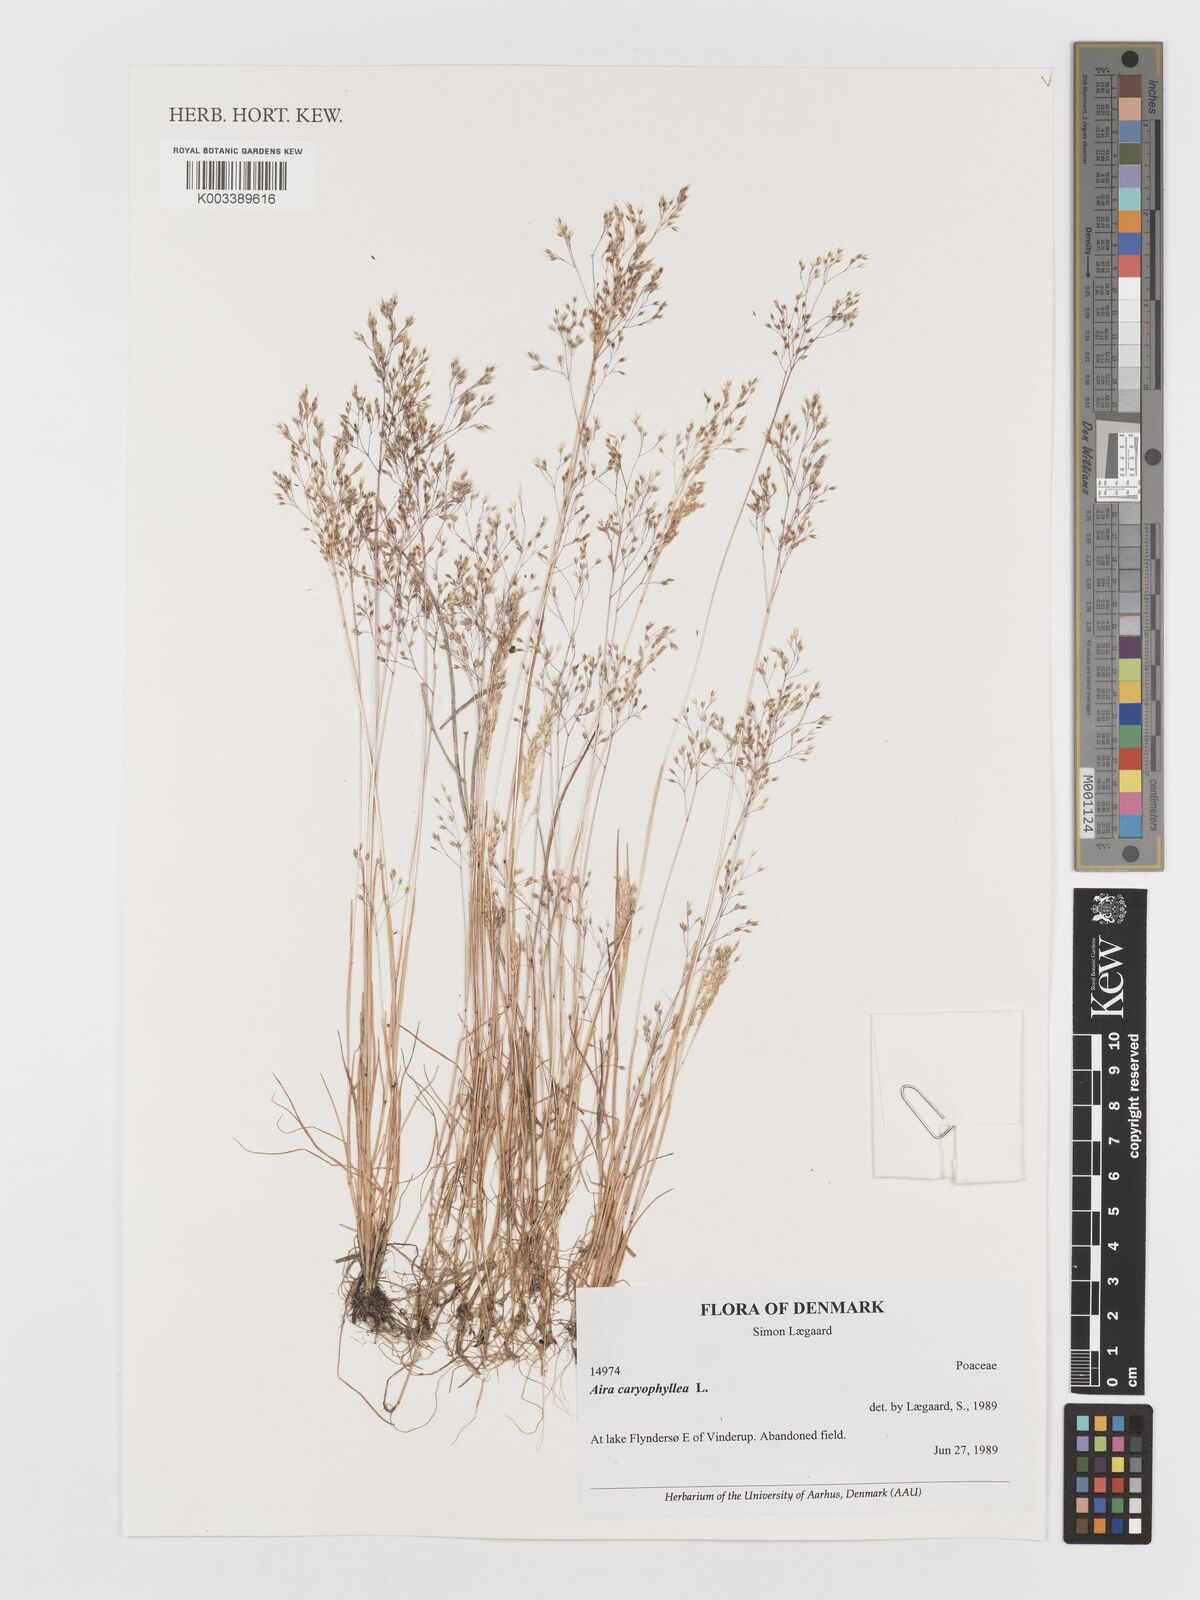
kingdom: Plantae
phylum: Tracheophyta
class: Liliopsida
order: Poales
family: Poaceae
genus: Aira
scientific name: Aira caryophyllea
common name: Silver hairgrass
